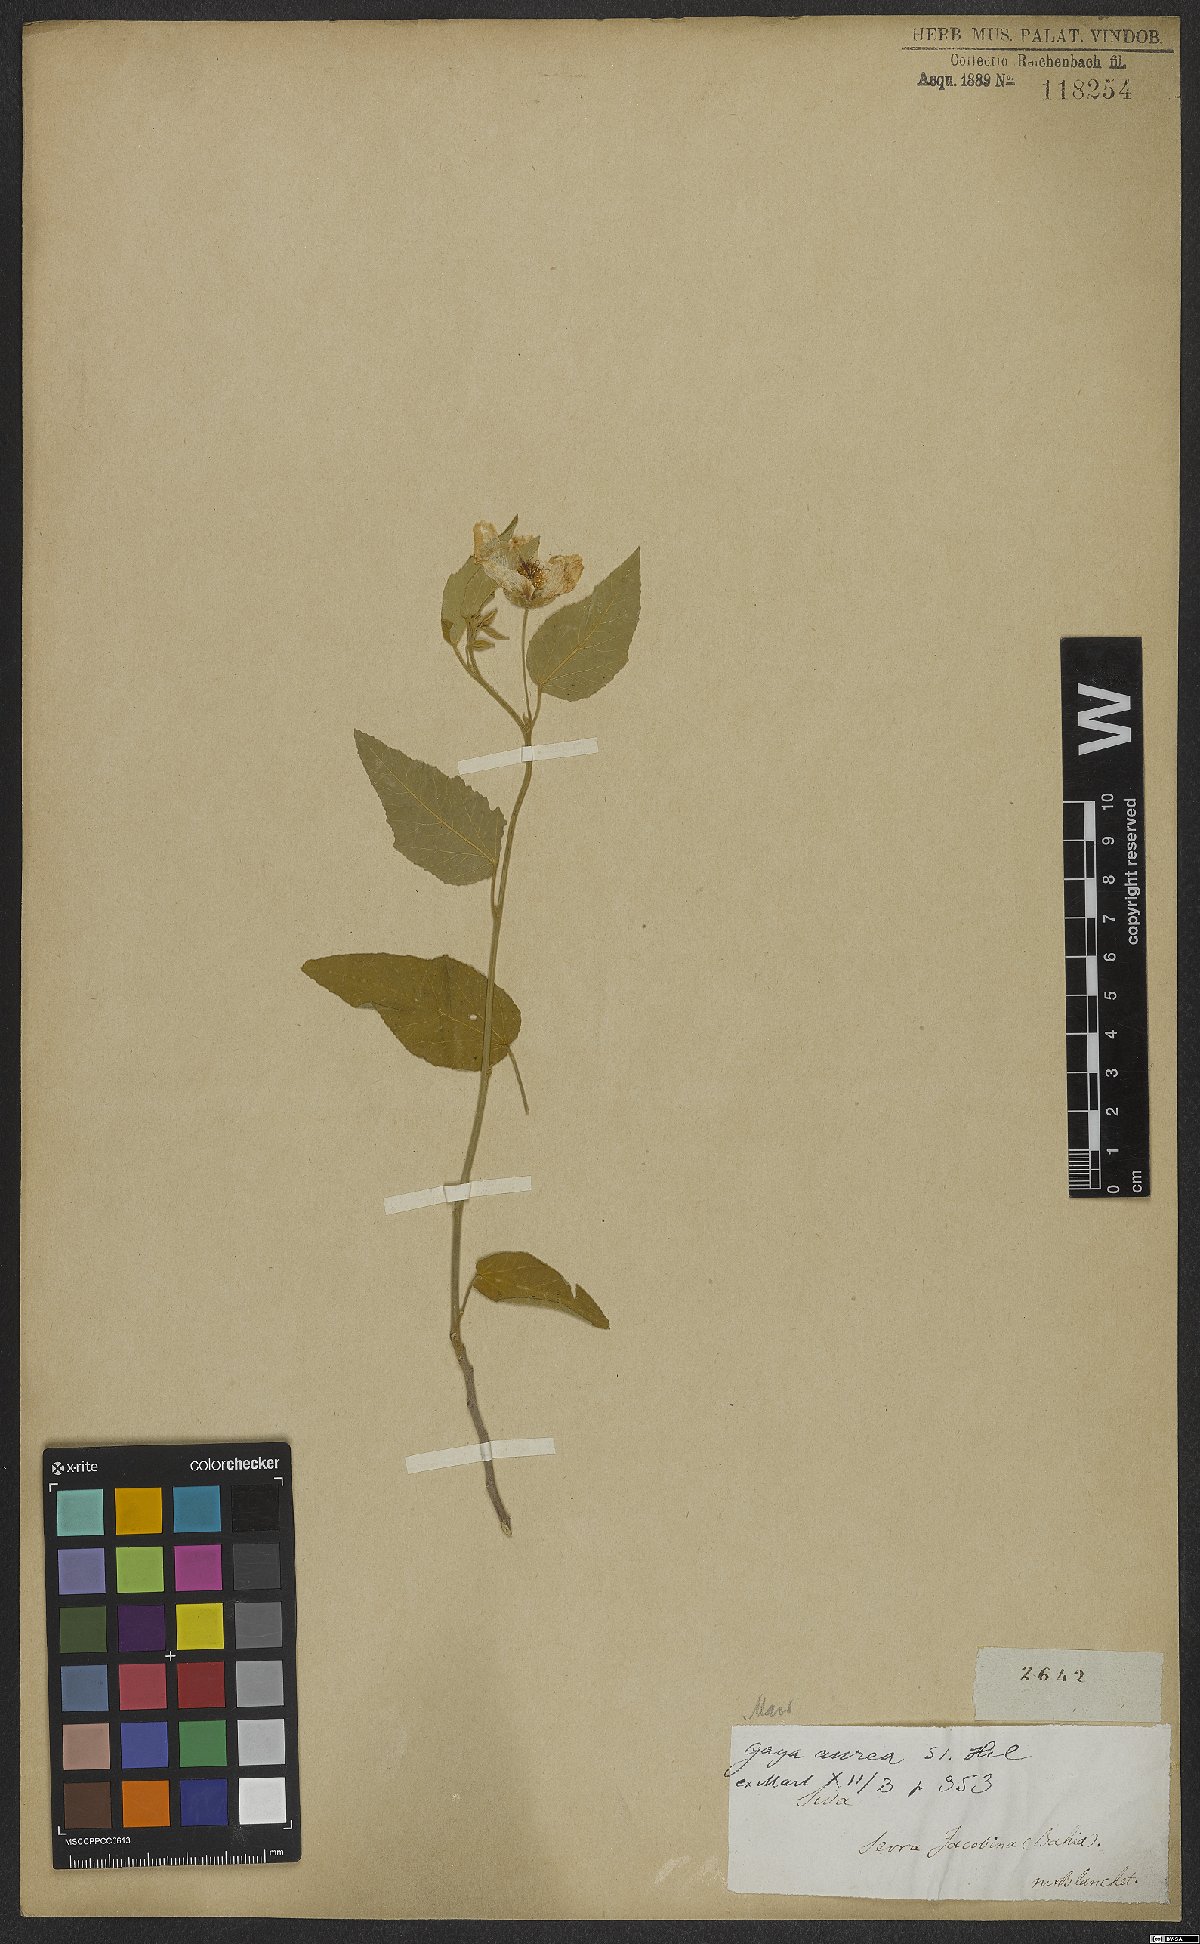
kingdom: Plantae
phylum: Tracheophyta
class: Magnoliopsida
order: Malvales
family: Malvaceae
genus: Gaya
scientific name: Gaya aurea
